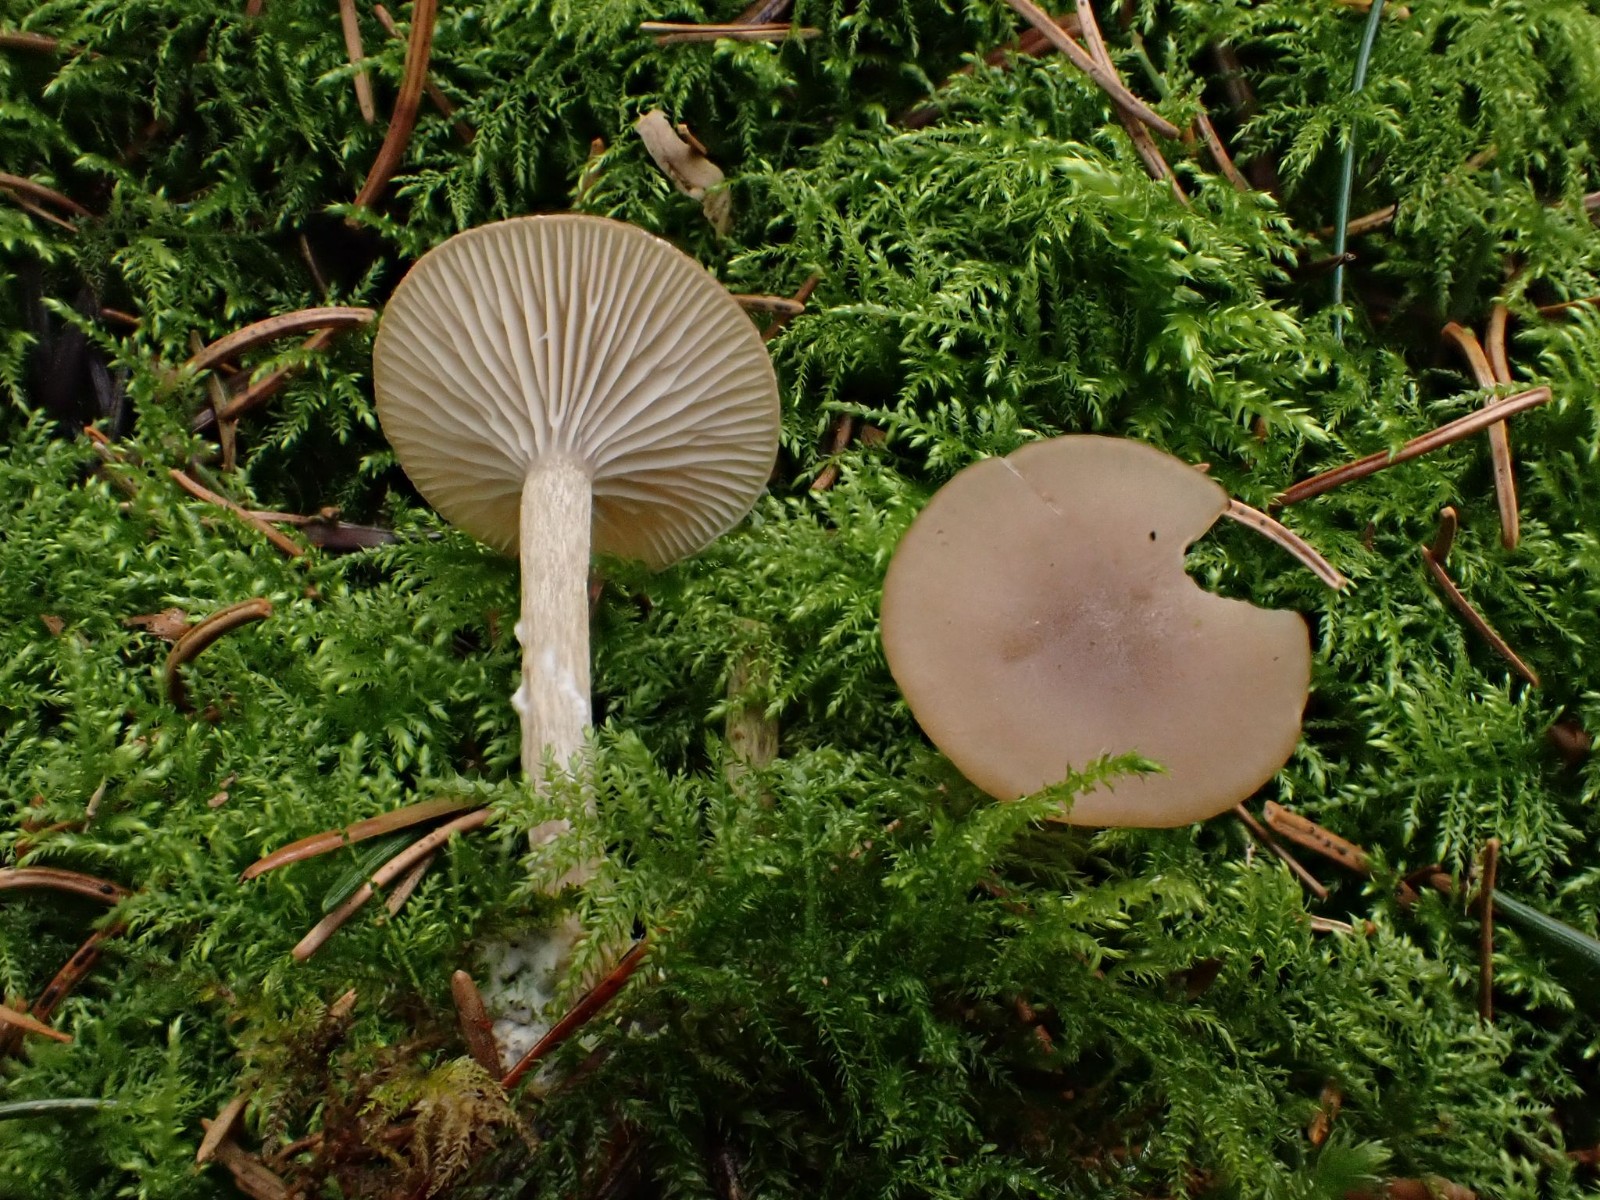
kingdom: Fungi
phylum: Basidiomycota
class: Agaricomycetes
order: Agaricales
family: Tricholomataceae
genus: Clitocybe
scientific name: Clitocybe obsoleta
